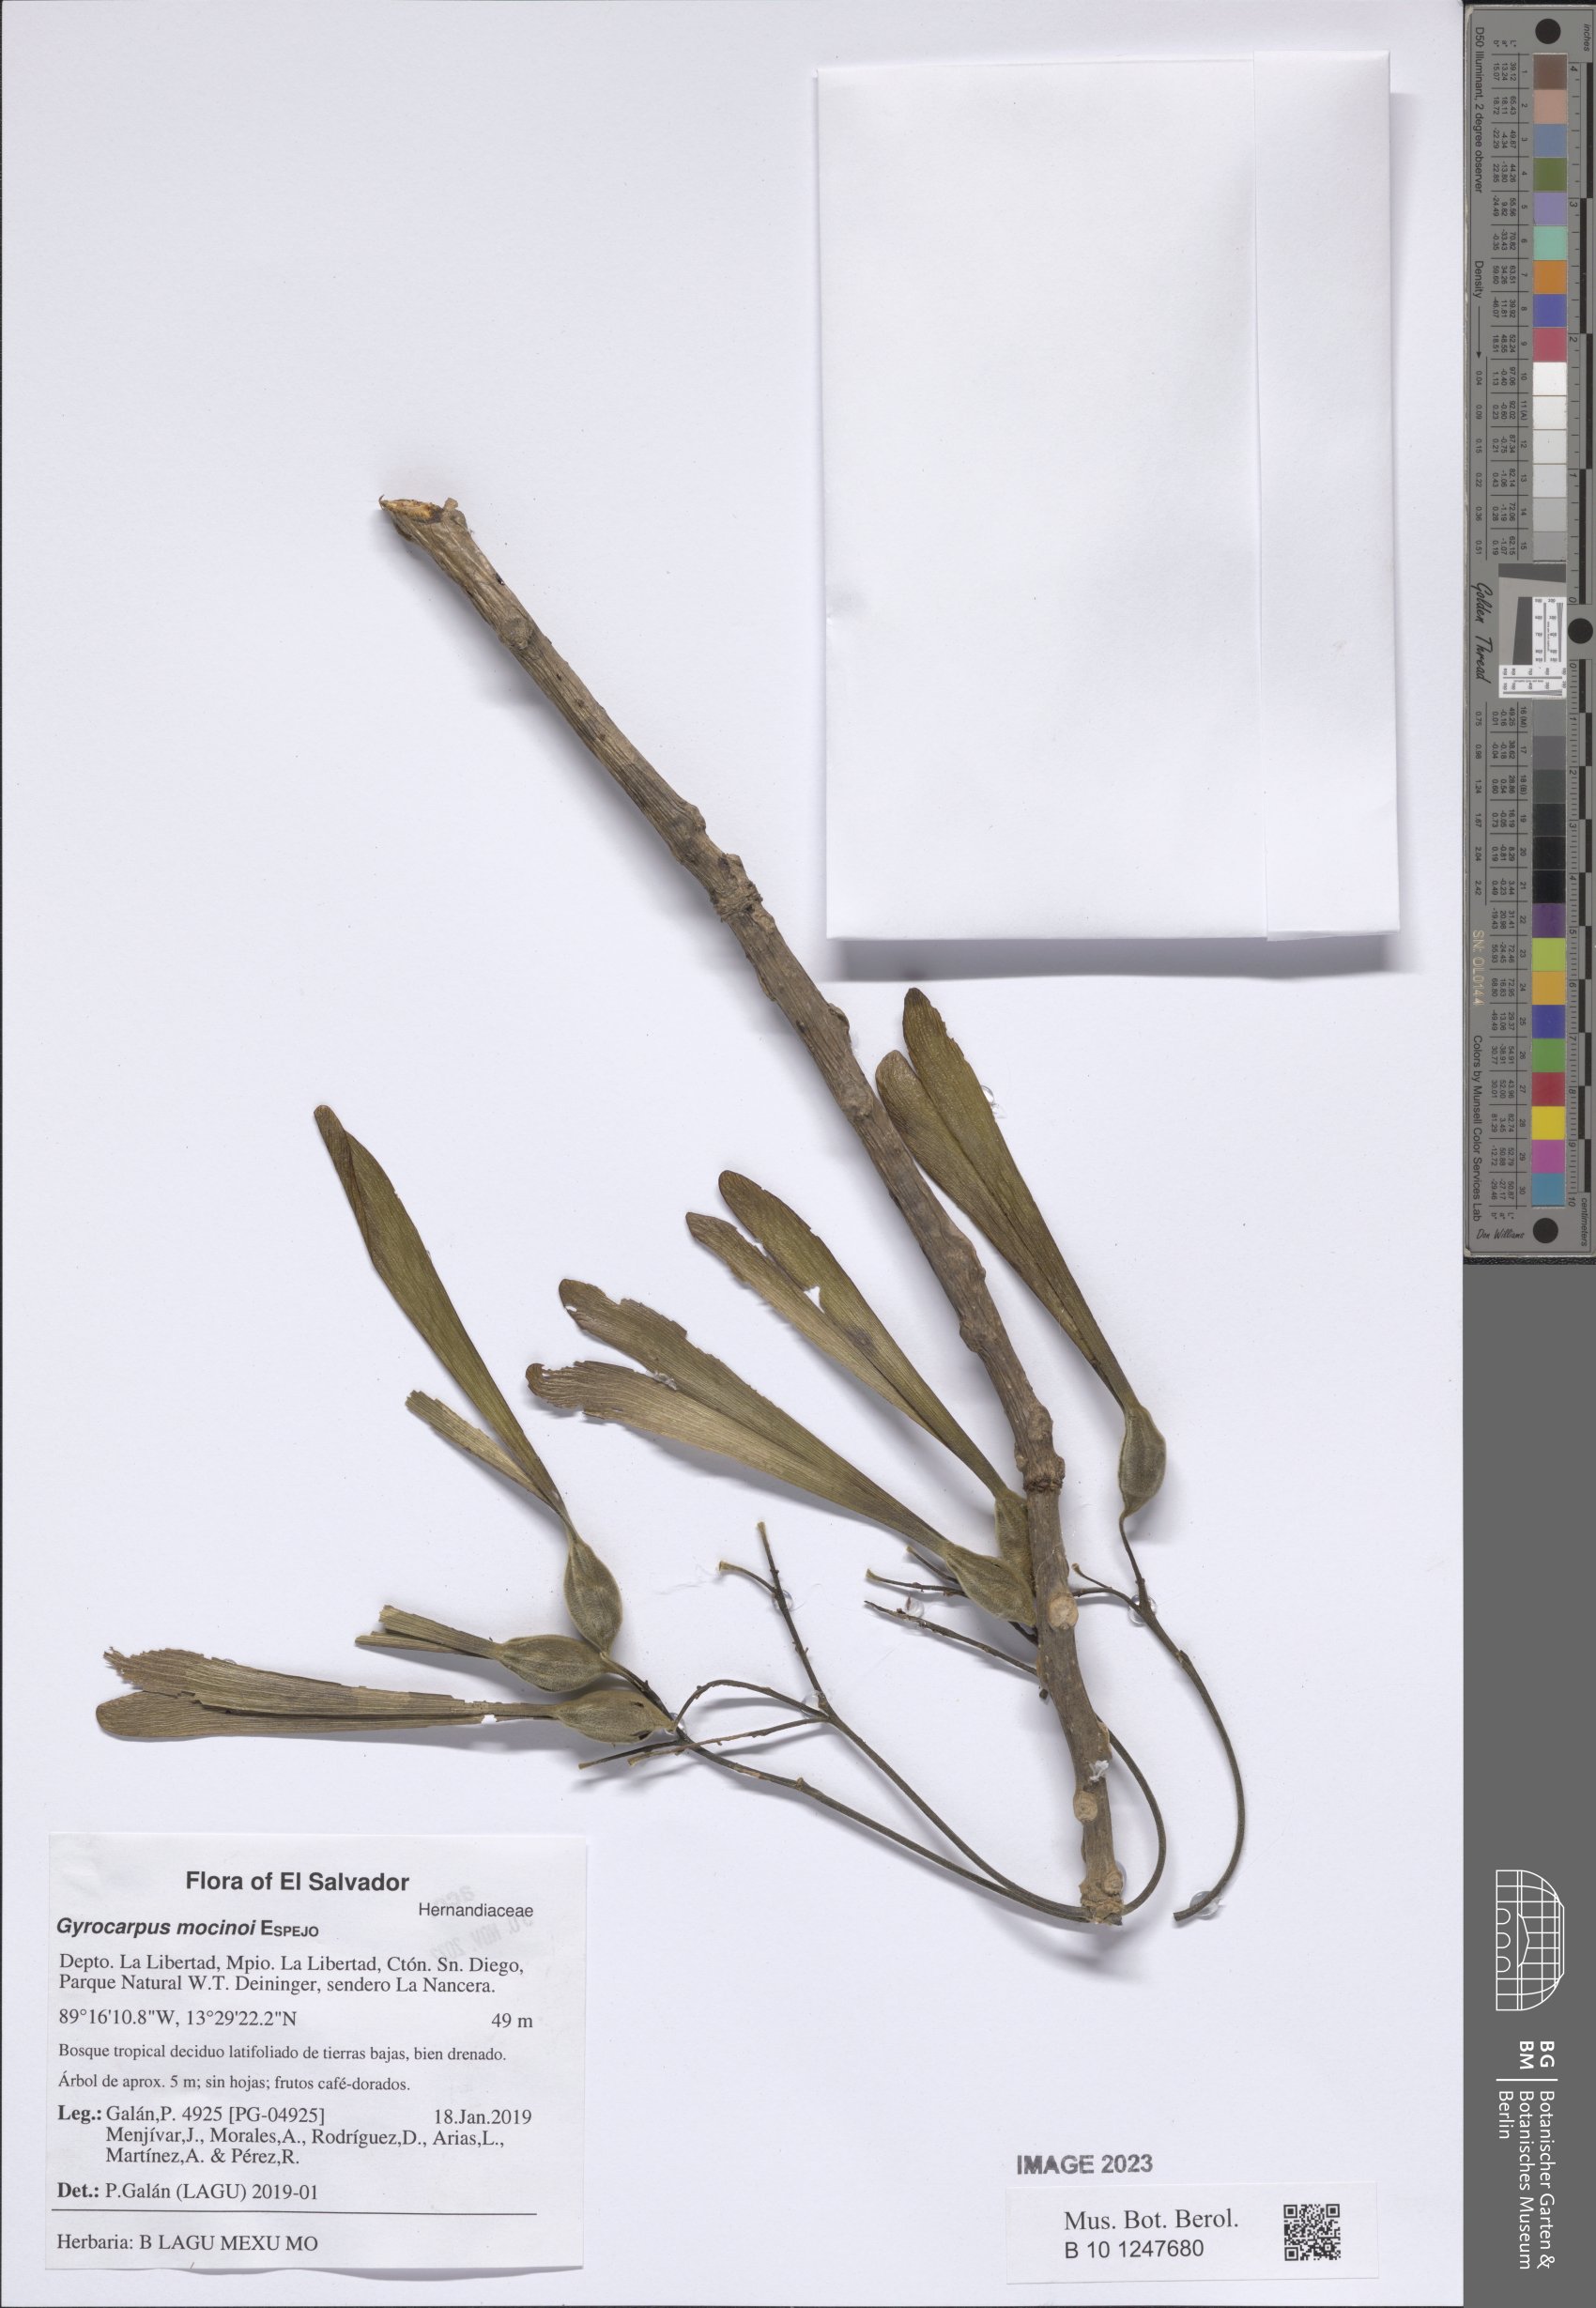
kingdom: Plantae
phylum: Tracheophyta
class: Magnoliopsida
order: Laurales
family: Hernandiaceae
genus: Gyrocarpus
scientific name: Gyrocarpus mocinoi
